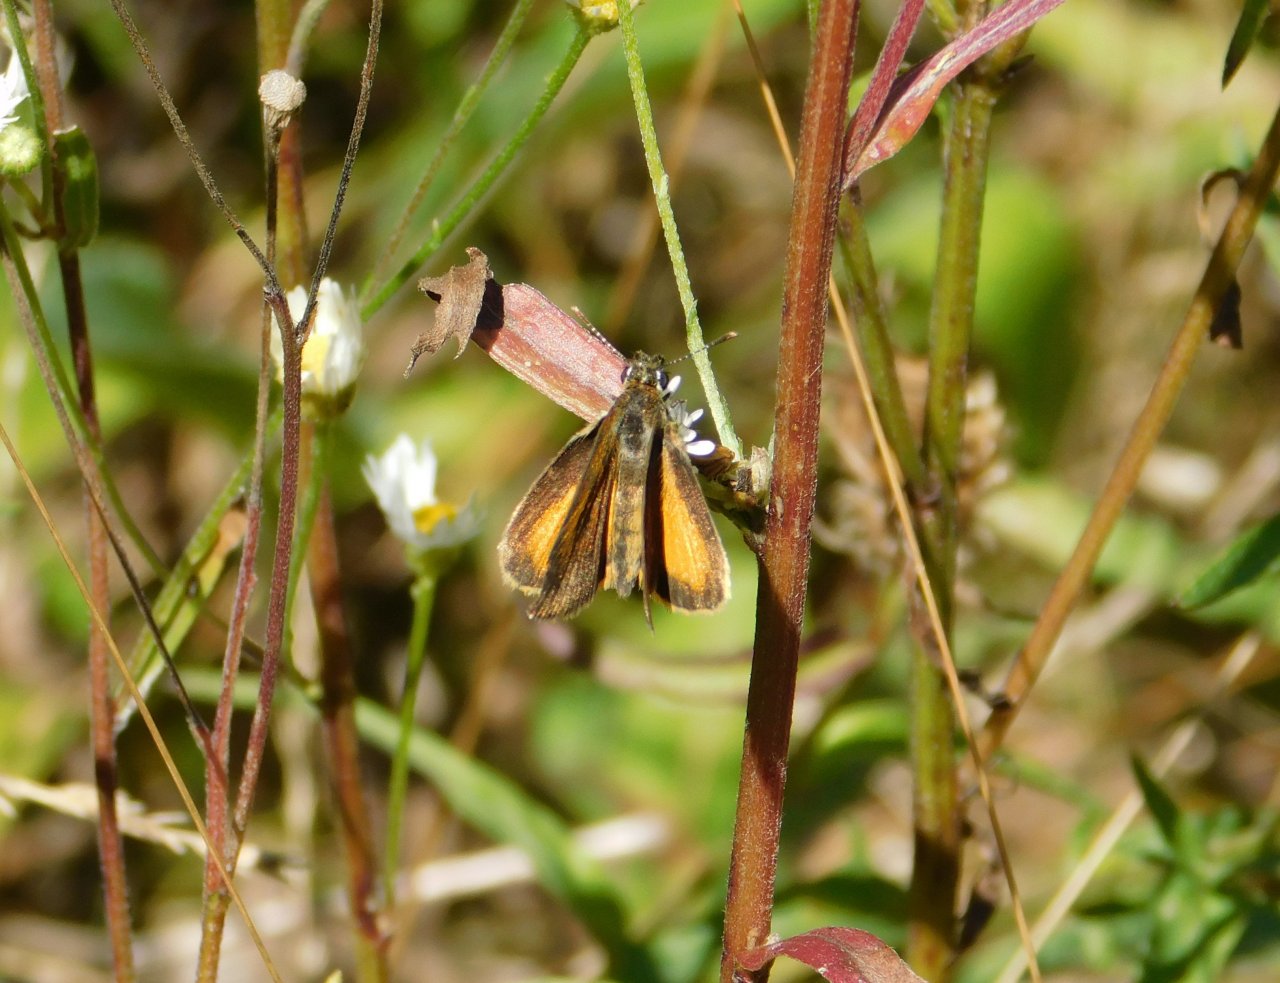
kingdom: Animalia
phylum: Arthropoda
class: Insecta
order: Lepidoptera
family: Hesperiidae
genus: Ancyloxypha
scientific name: Ancyloxypha numitor
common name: Least Skipper
